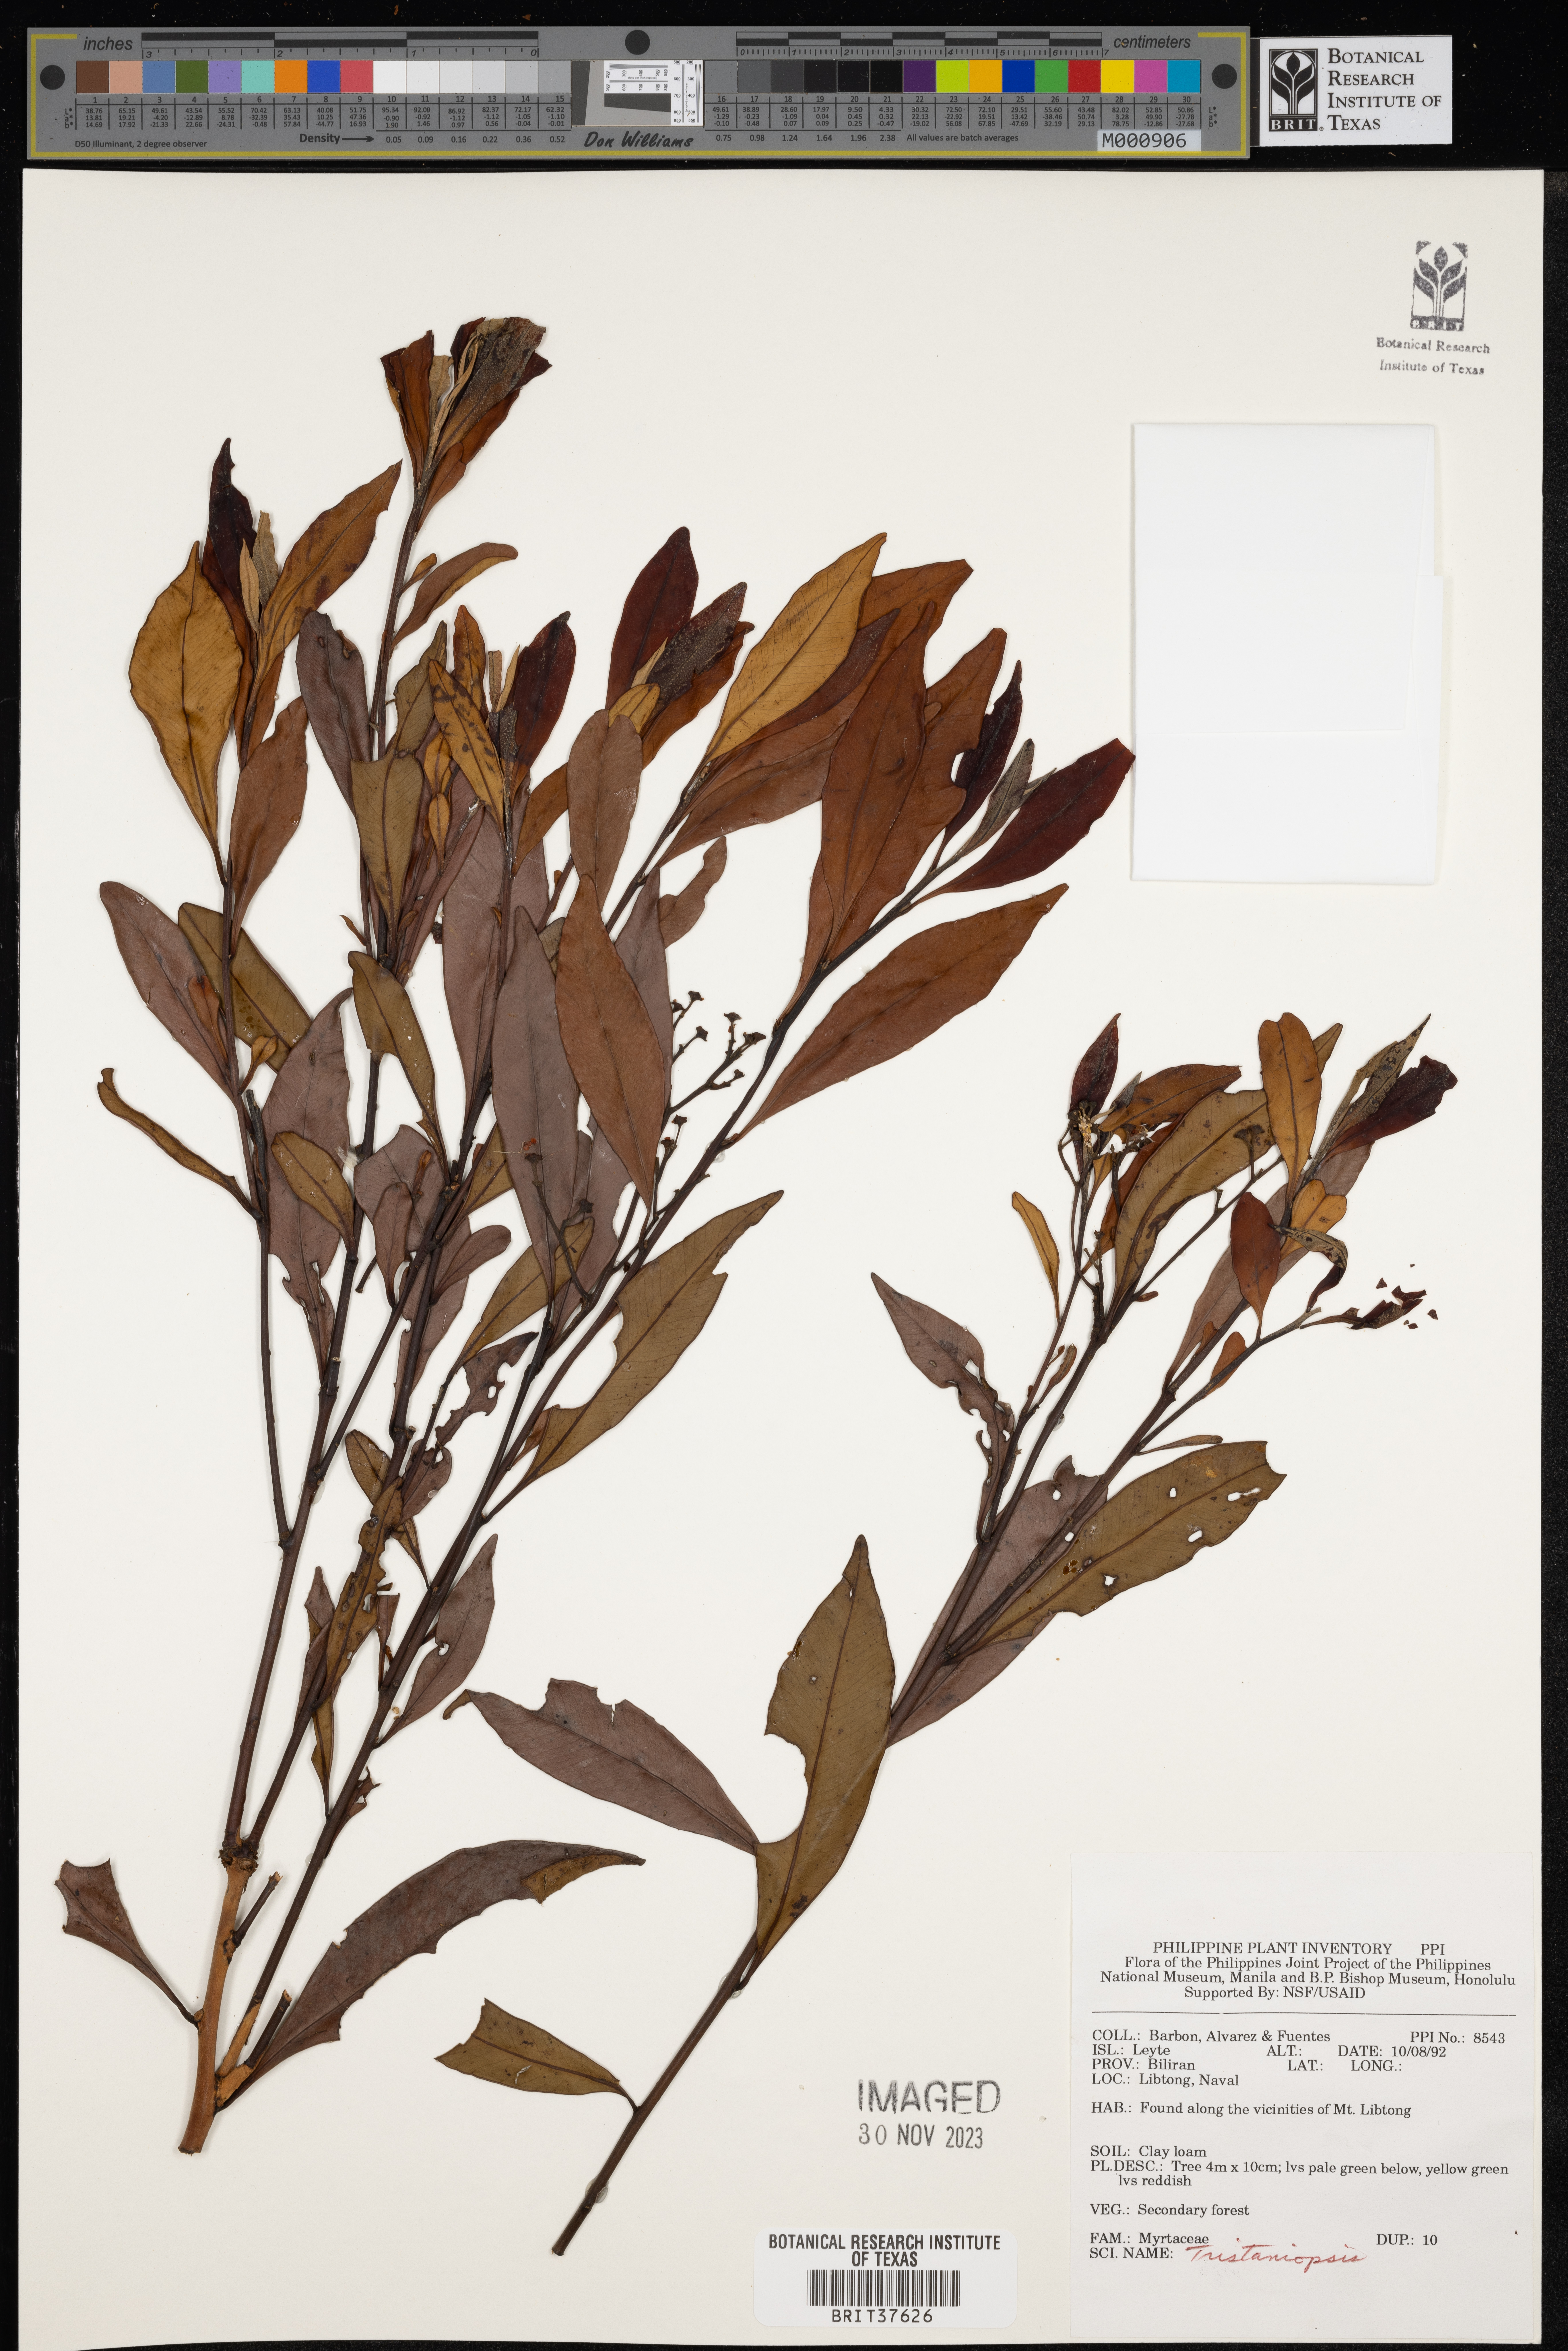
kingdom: Plantae
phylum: Tracheophyta
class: Magnoliopsida
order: Myrtales
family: Myrtaceae
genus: Tristaniopsis
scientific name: Tristaniopsis
